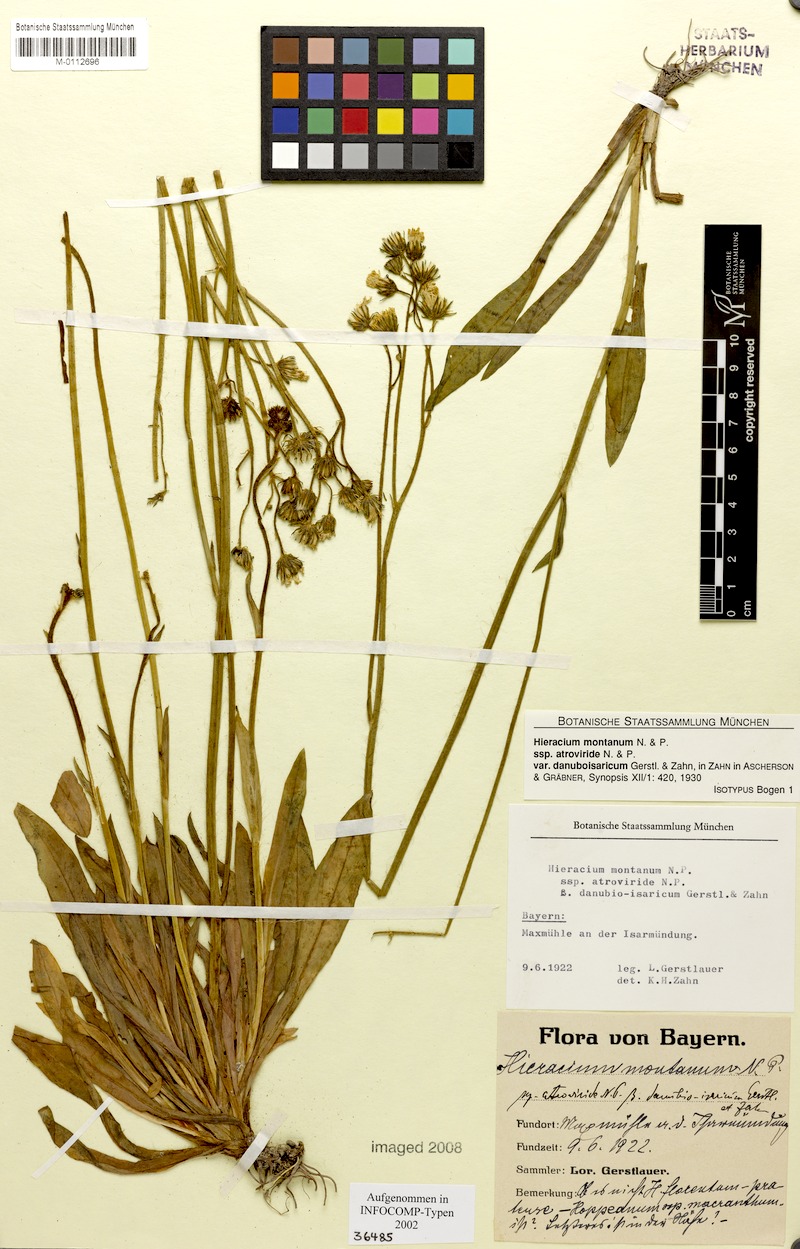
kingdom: Plantae
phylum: Tracheophyta
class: Magnoliopsida
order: Asterales
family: Asteraceae
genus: Pilosella
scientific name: Pilosella leptoclados
